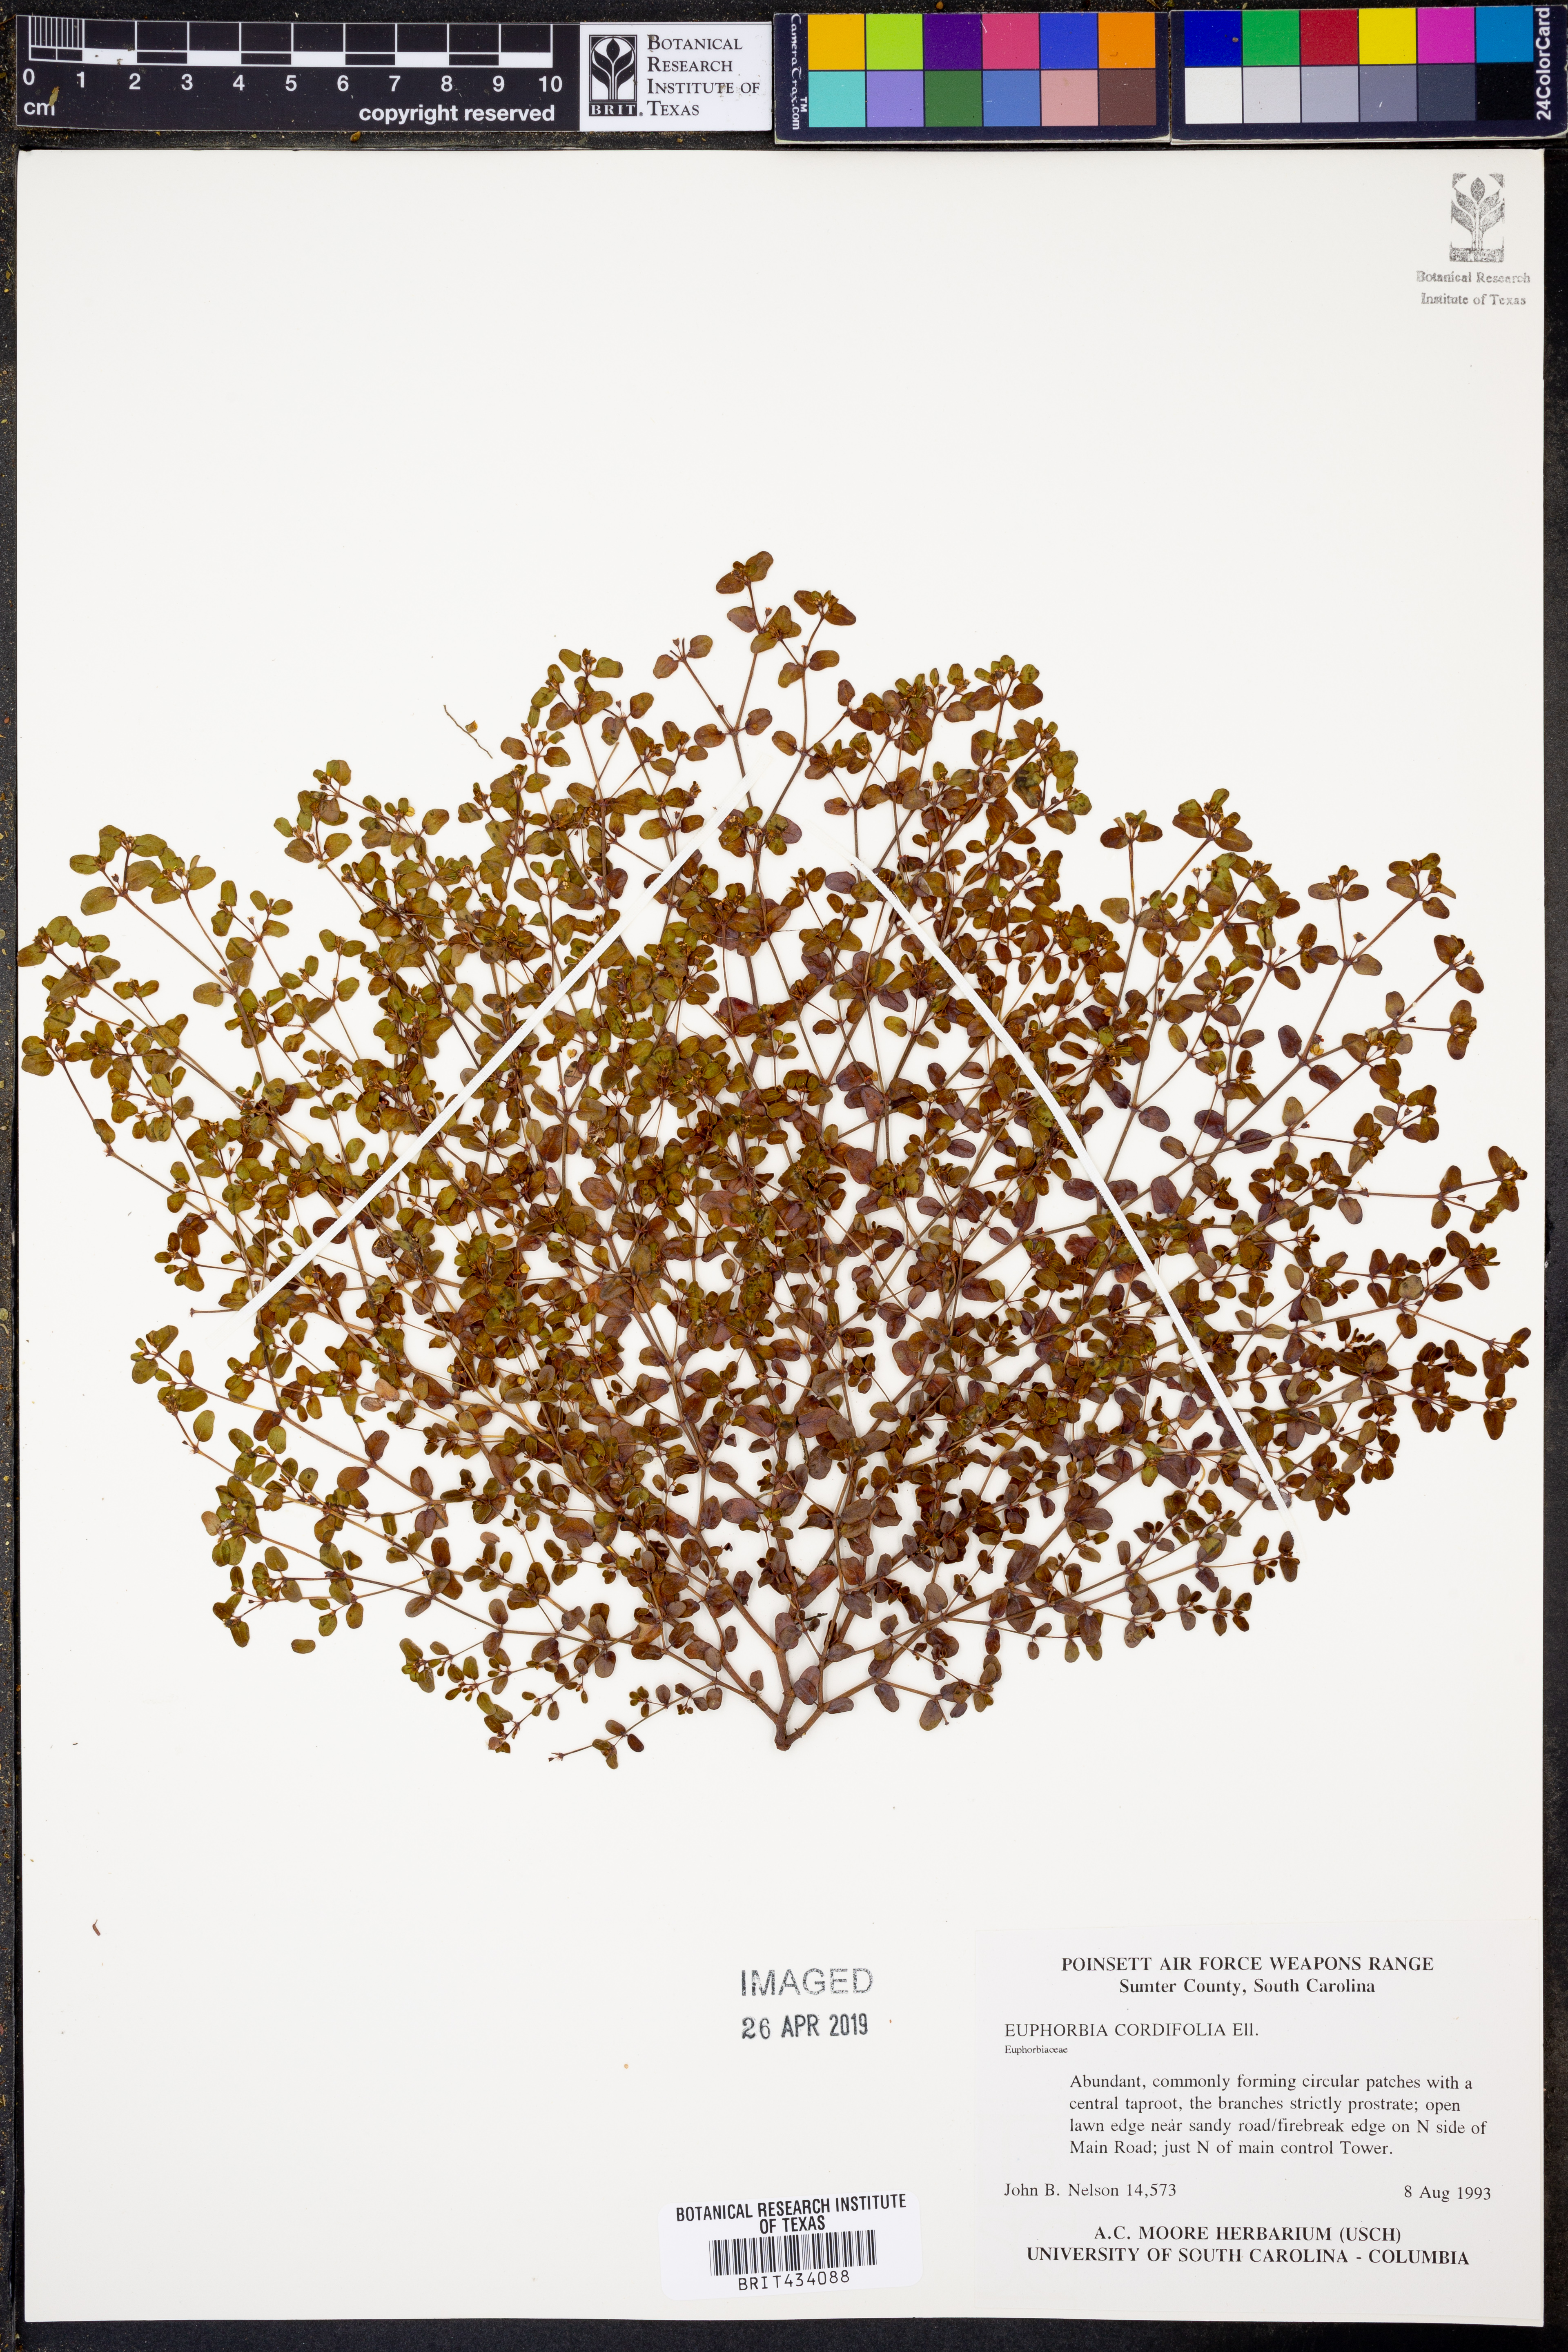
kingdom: Plantae
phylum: Tracheophyta
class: Magnoliopsida
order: Malpighiales
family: Euphorbiaceae
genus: Euphorbia
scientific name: Euphorbia cordifolia
